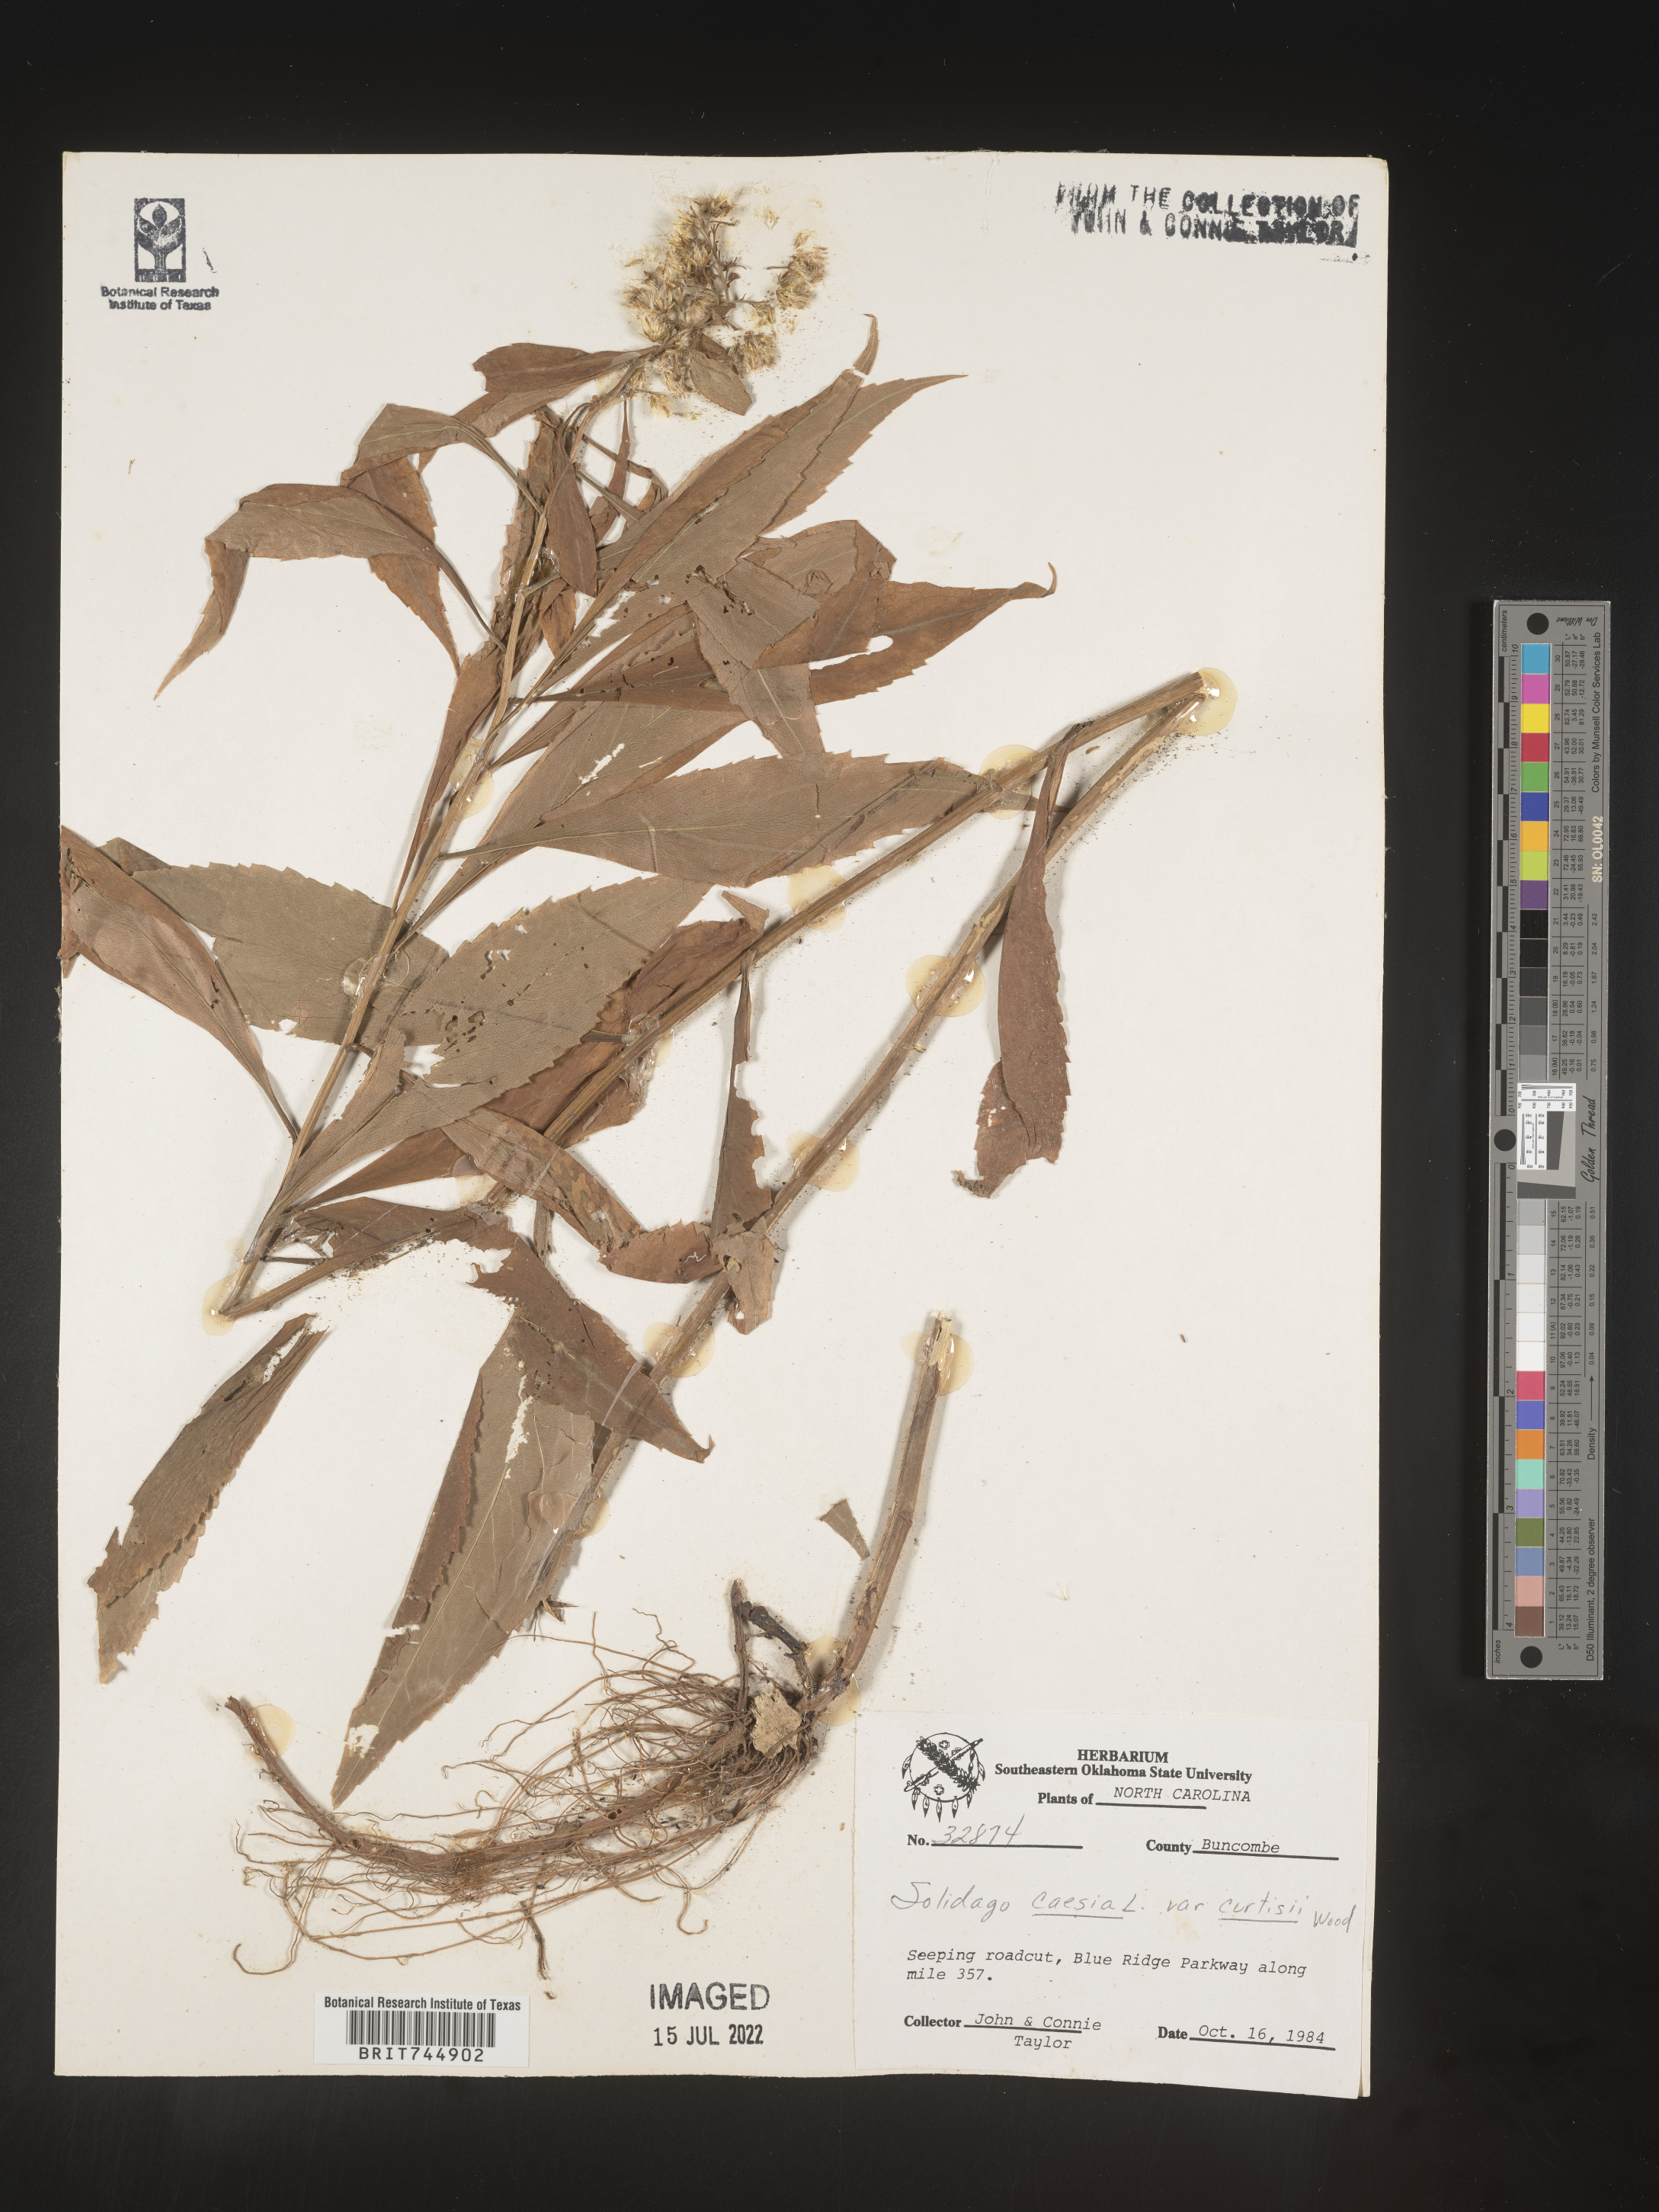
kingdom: Plantae
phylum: Tracheophyta
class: Magnoliopsida
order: Asterales
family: Asteraceae
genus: Solidago
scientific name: Solidago curtisii
